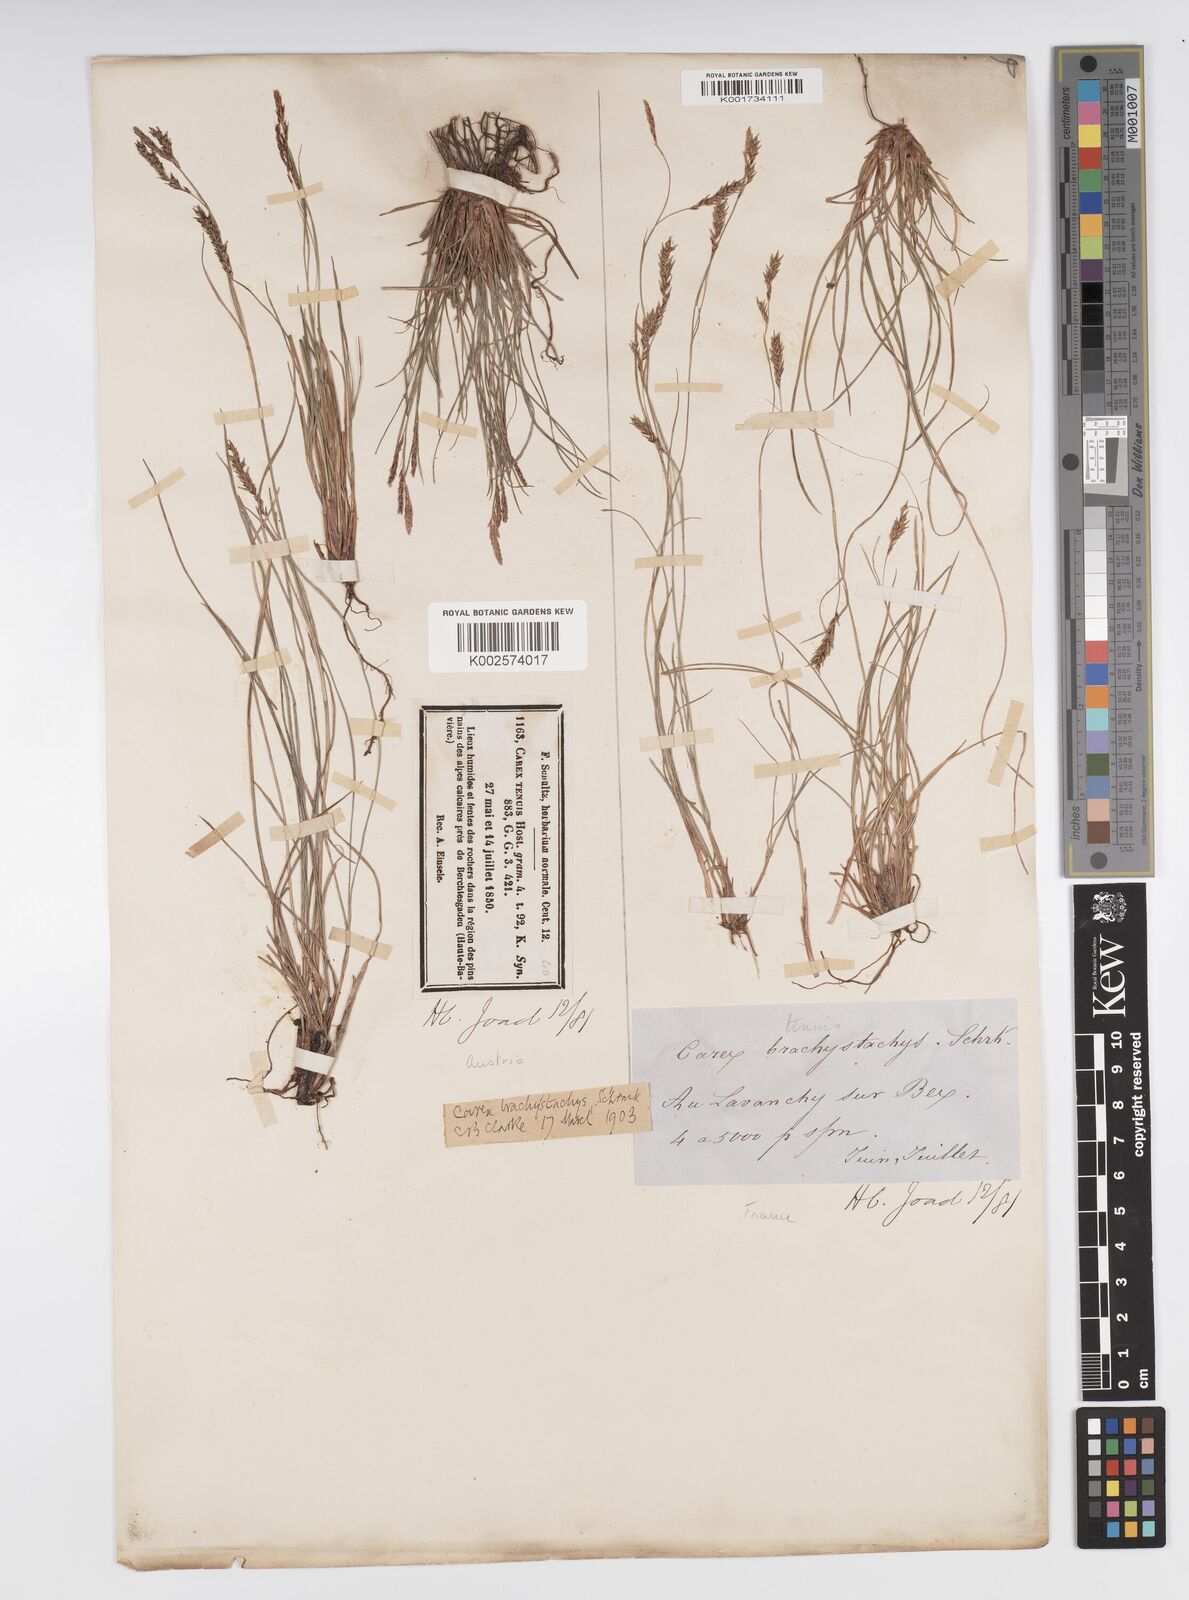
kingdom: Plantae
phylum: Tracheophyta
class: Liliopsida
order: Poales
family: Cyperaceae
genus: Carex
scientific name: Carex brachystachys
